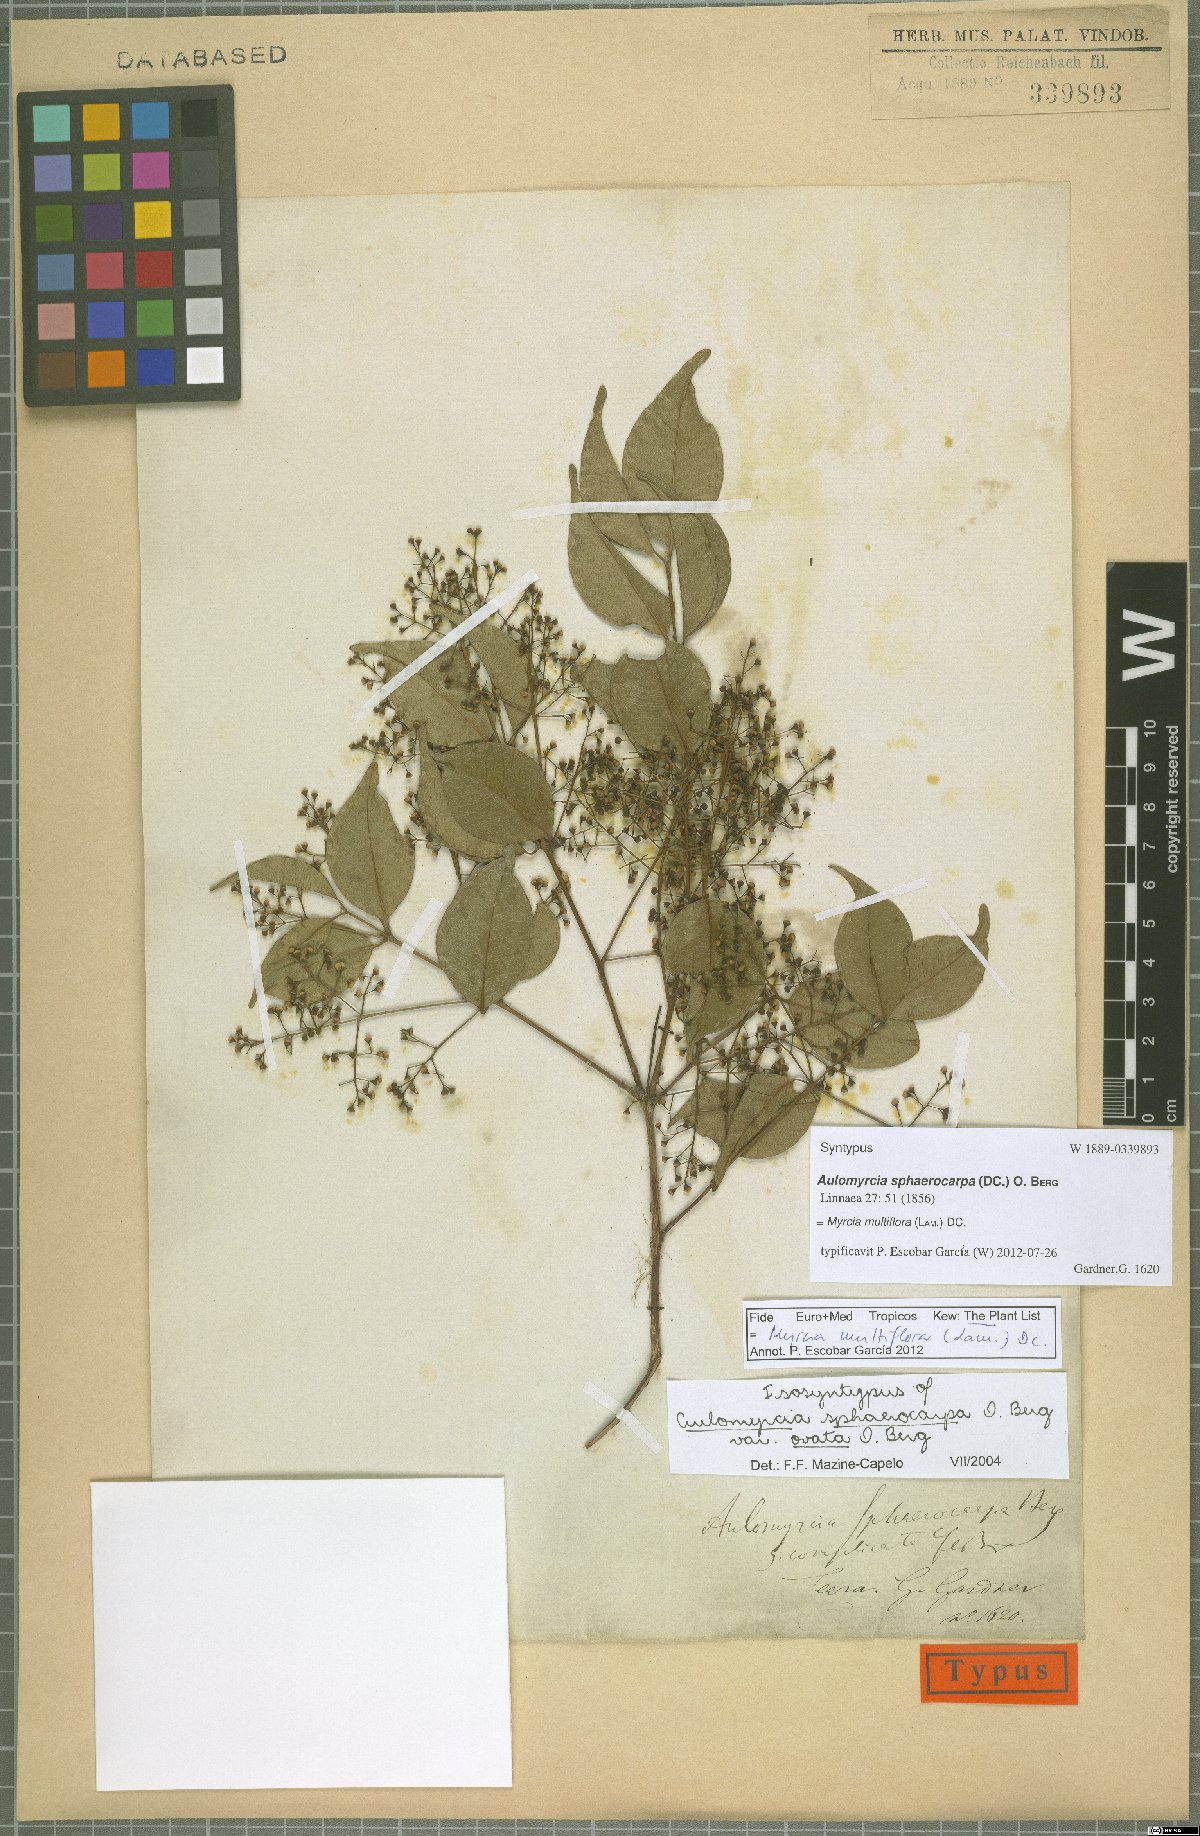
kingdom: Plantae
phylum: Tracheophyta
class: Magnoliopsida
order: Myrtales
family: Myrtaceae
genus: Myrcia
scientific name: Myrcia multiflora
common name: Pedra hume
